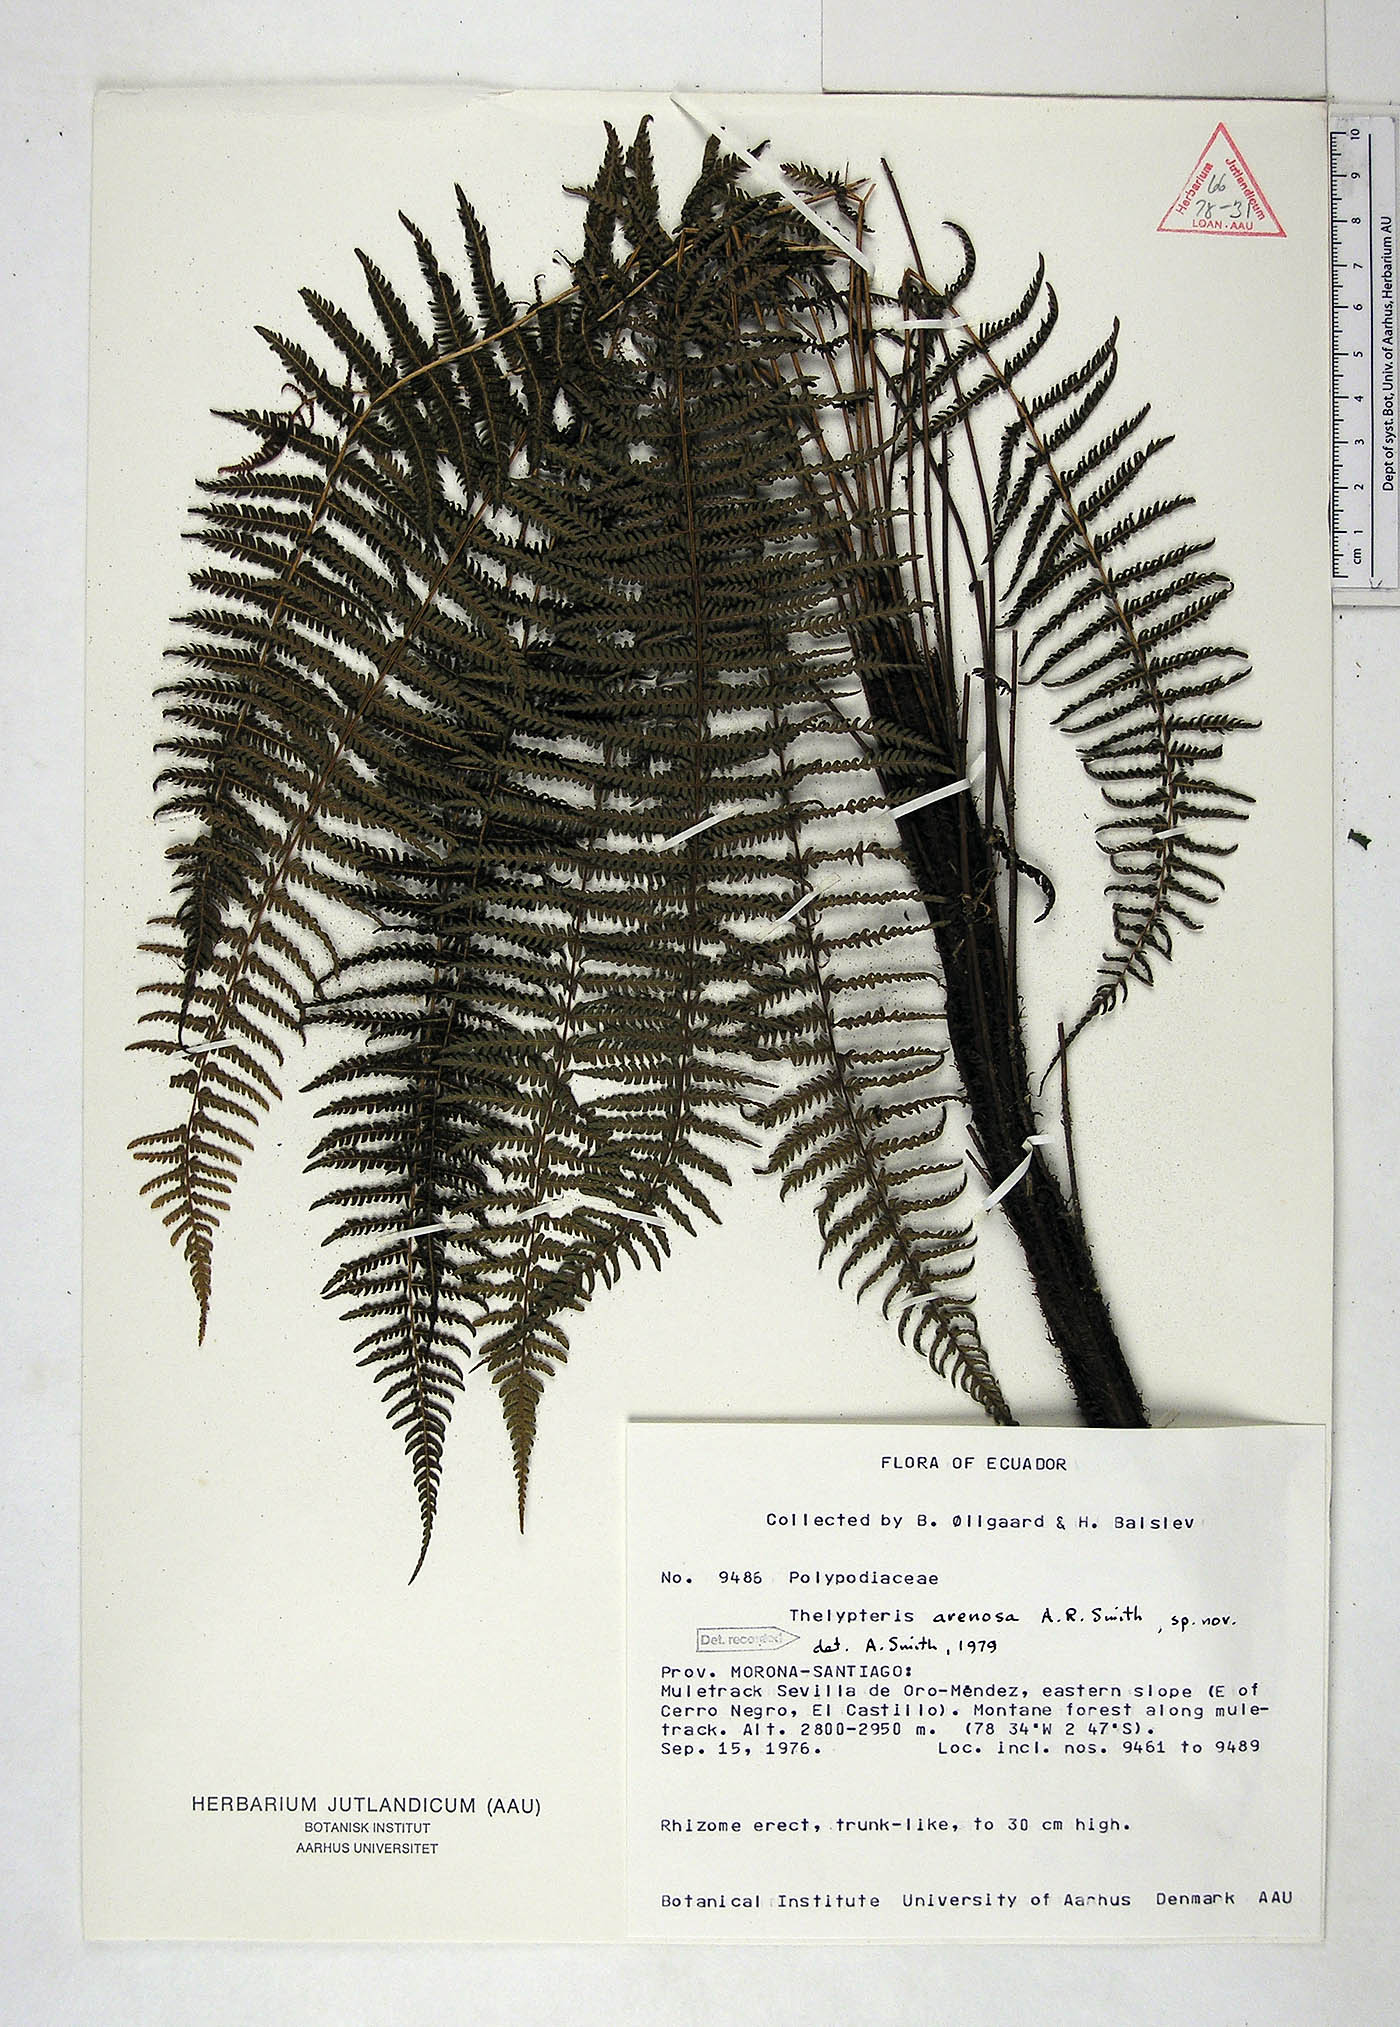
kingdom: Plantae
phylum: Tracheophyta
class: Polypodiopsida
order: Polypodiales
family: Thelypteridaceae
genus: Amauropelta
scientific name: Amauropelta arenosa
